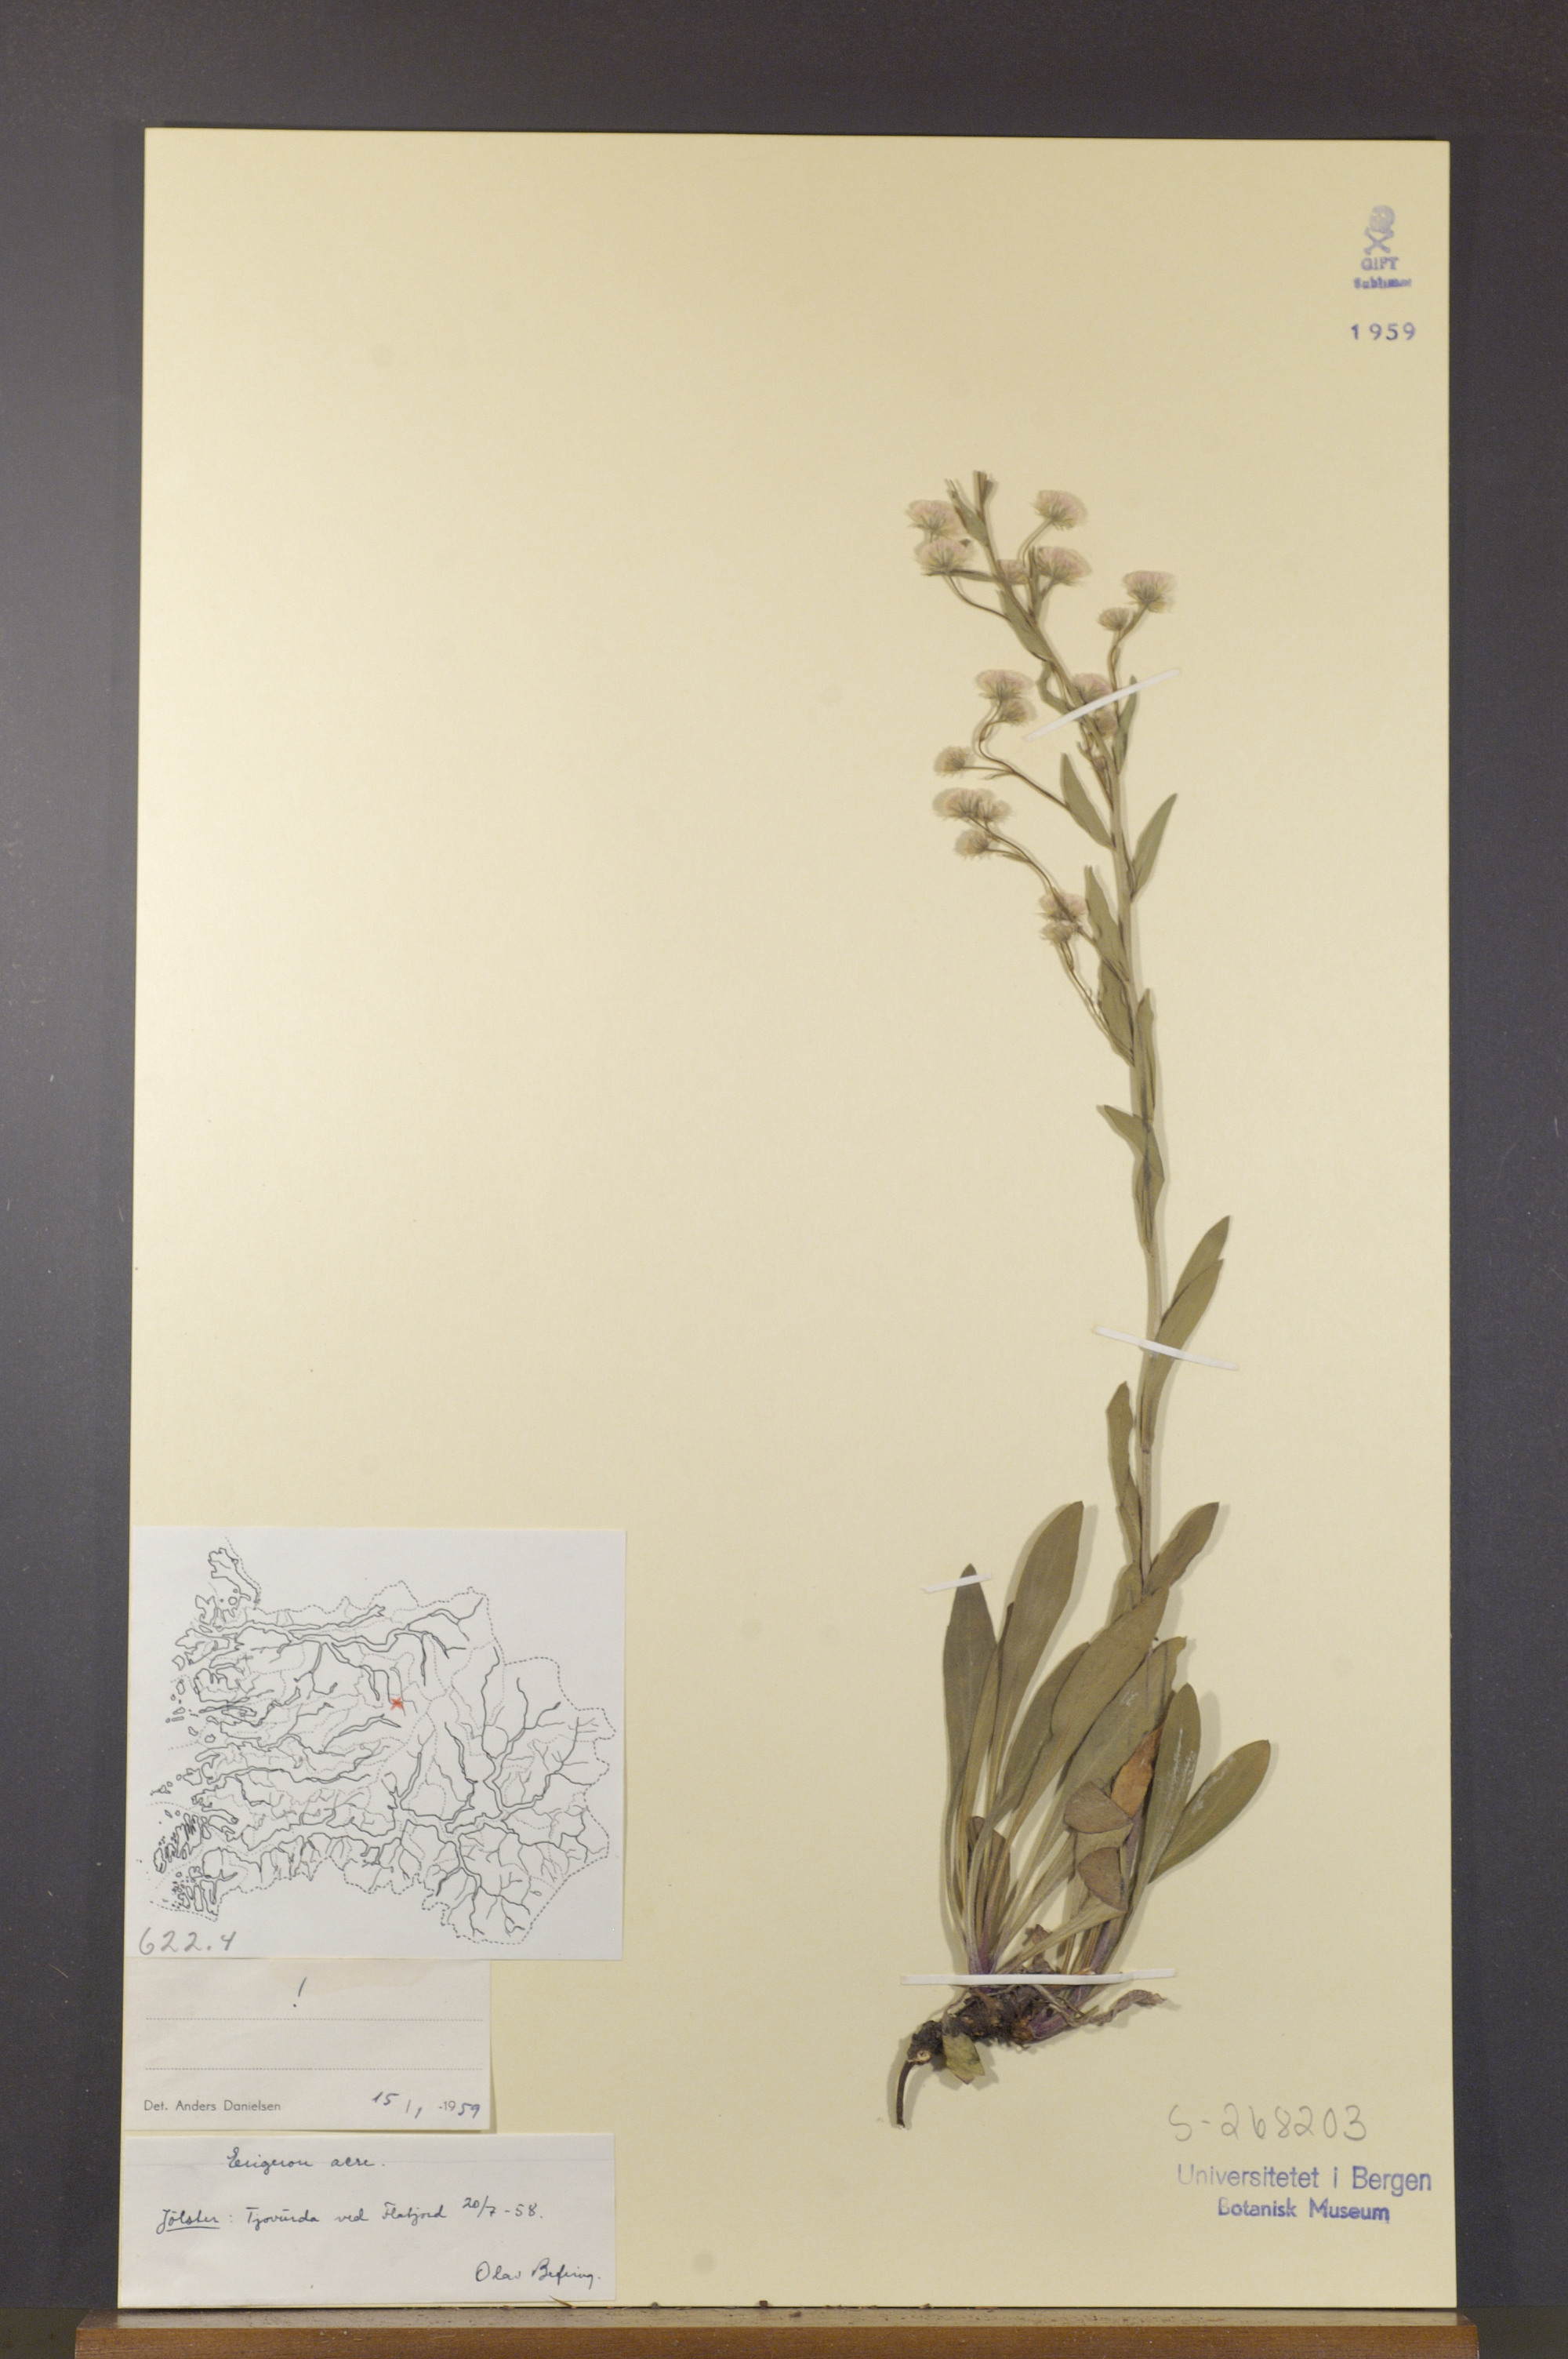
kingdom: Plantae
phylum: Tracheophyta
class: Magnoliopsida
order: Asterales
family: Asteraceae
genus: Erigeron
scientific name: Erigeron acris
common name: Blue fleabane
